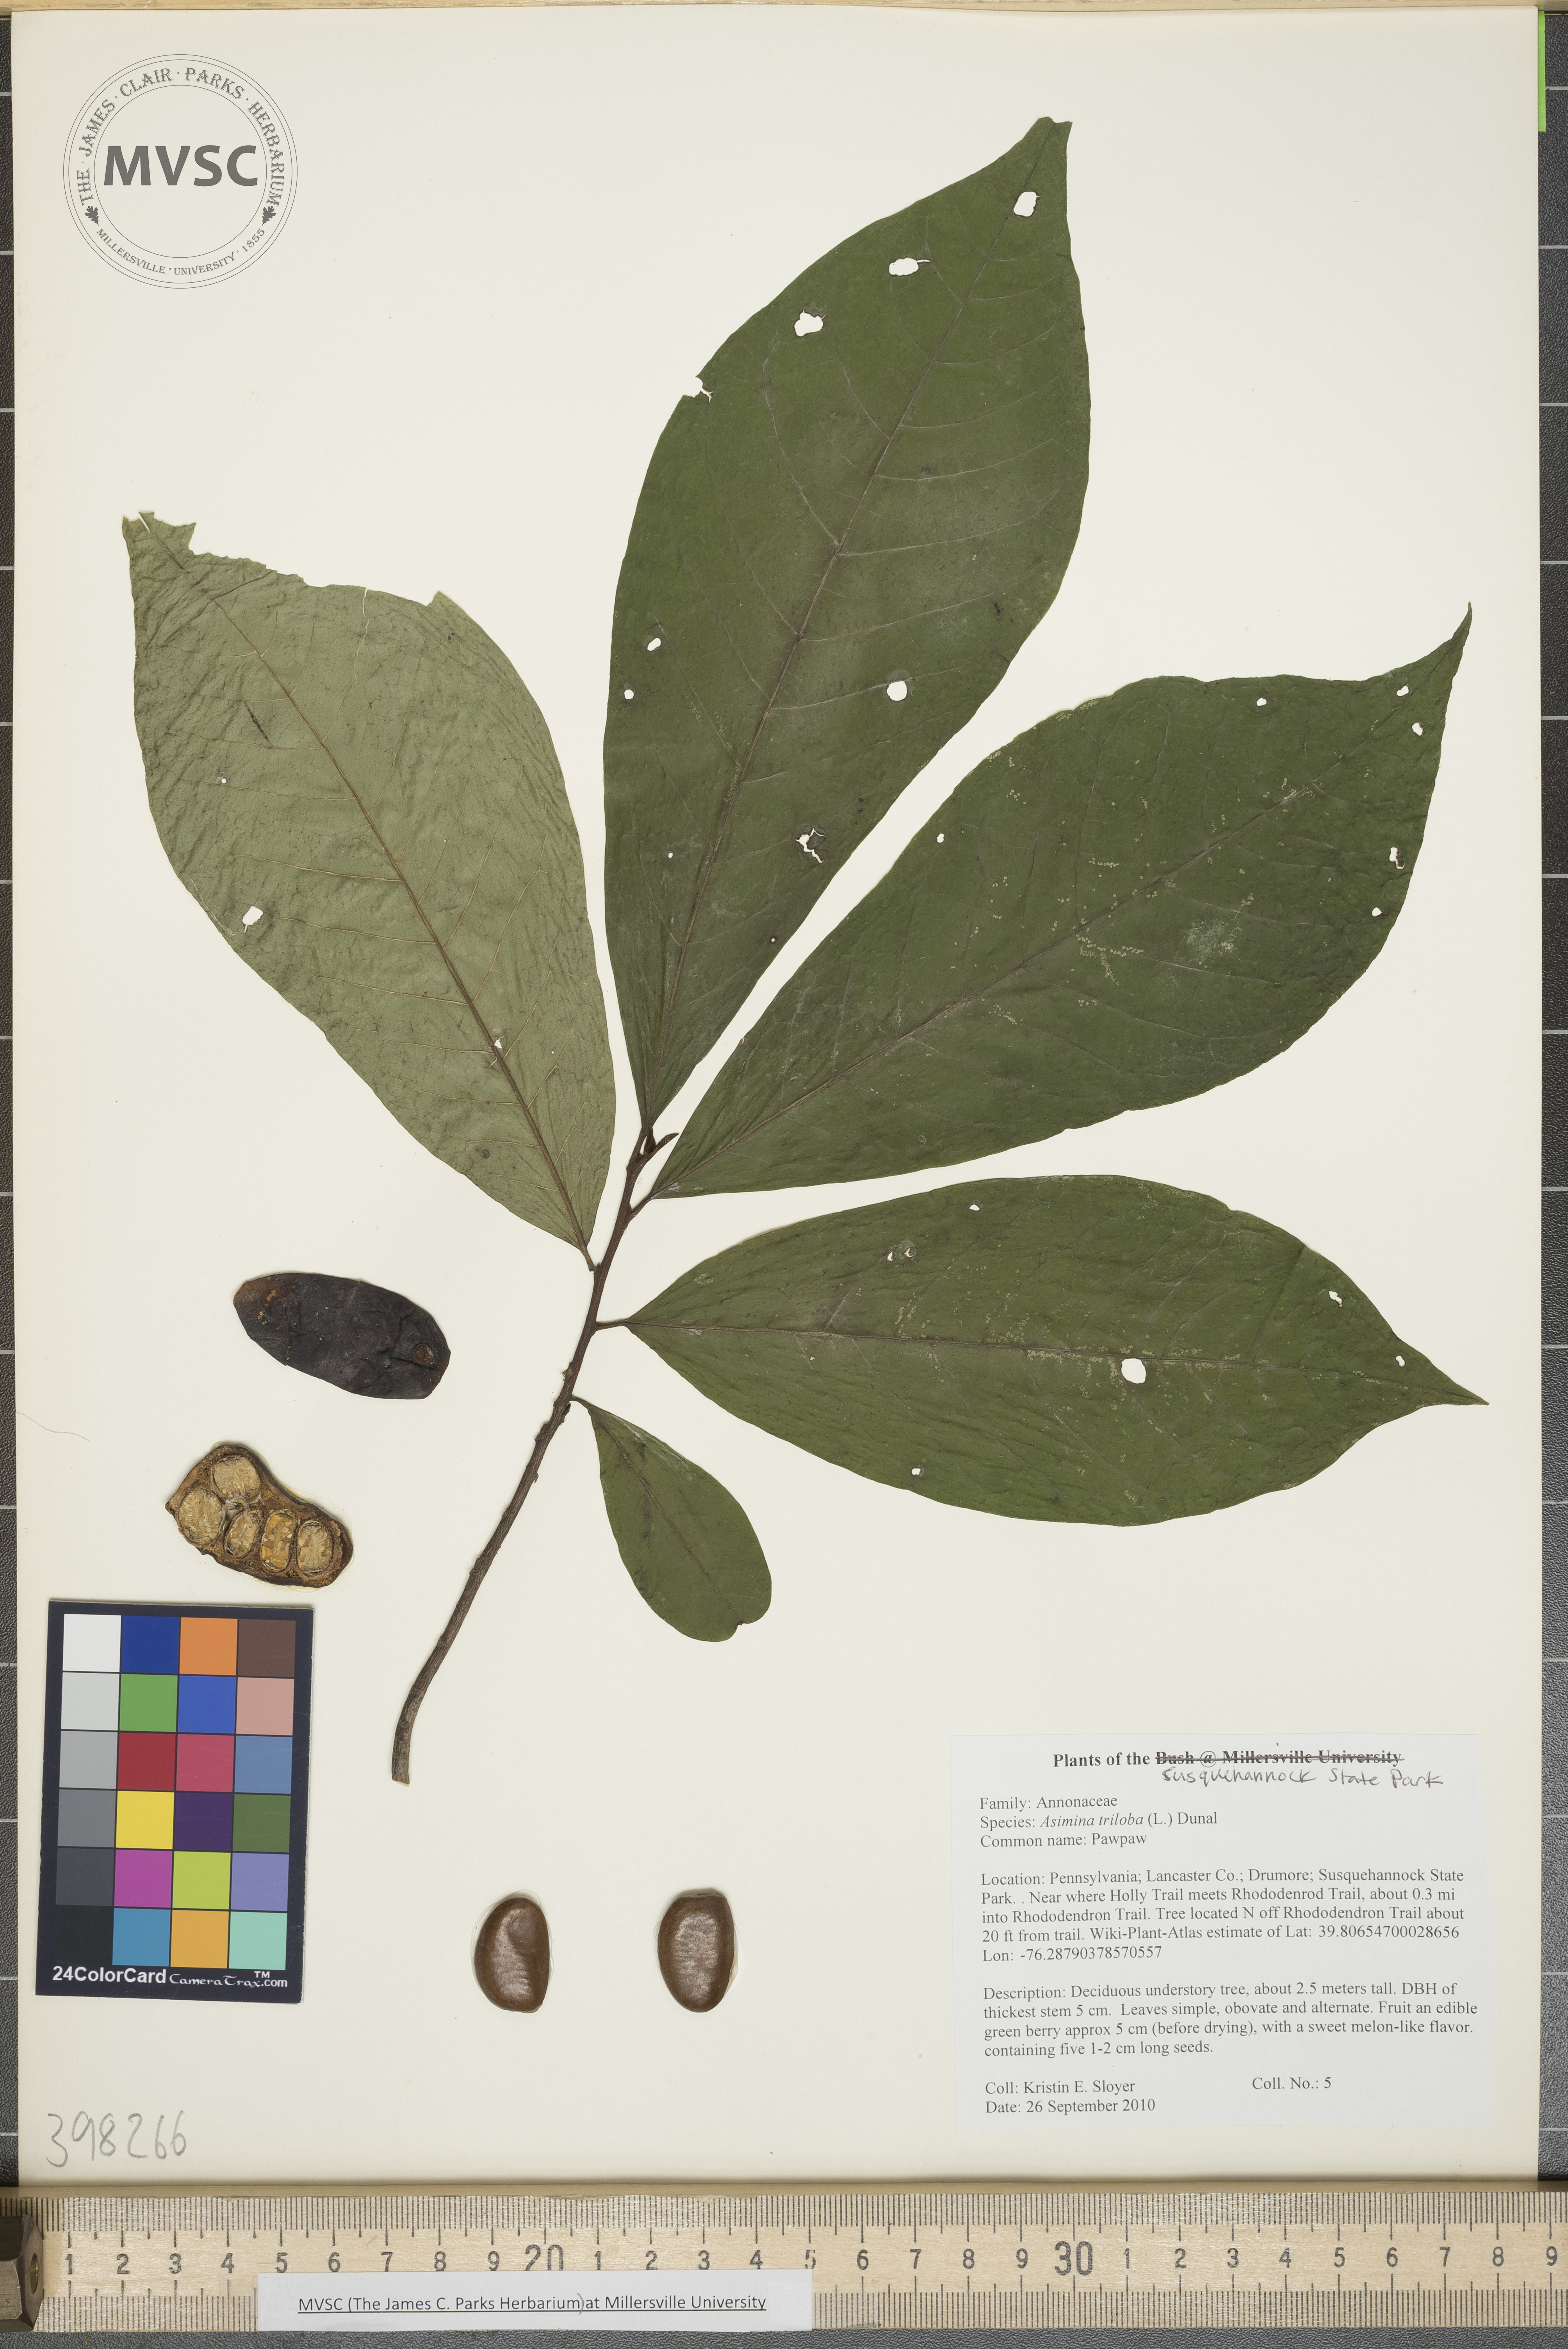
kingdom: Plantae
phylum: Tracheophyta
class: Magnoliopsida
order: Magnoliales
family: Annonaceae
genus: Asimina
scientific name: Asimina triloba
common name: Pawpaw
